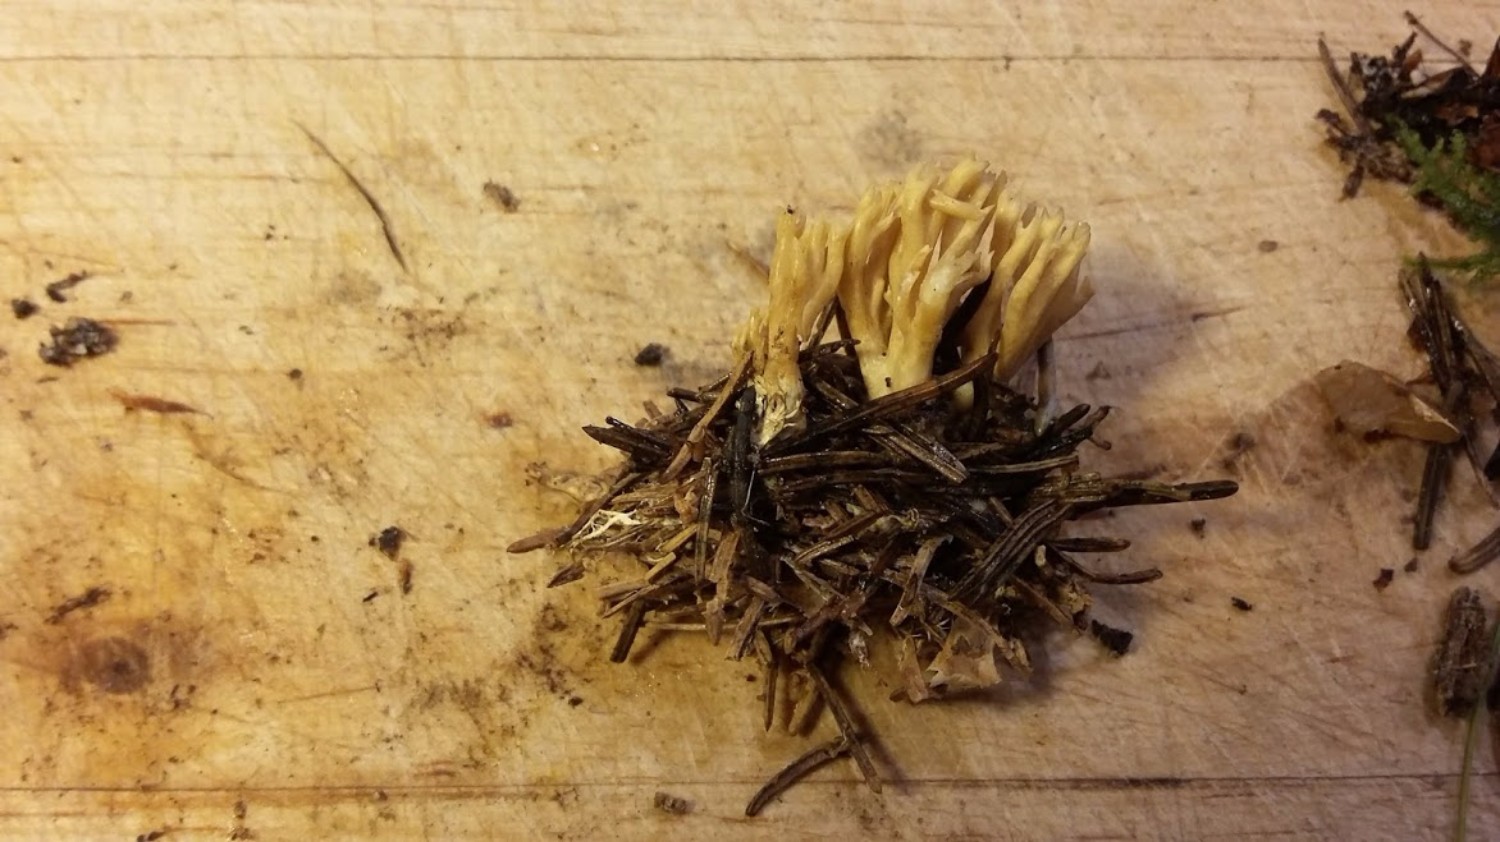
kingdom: Fungi
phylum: Basidiomycota
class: Agaricomycetes
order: Gomphales
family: Gomphaceae
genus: Phaeoclavulina
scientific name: Phaeoclavulina eumorpha
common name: gran-koralsvamp
